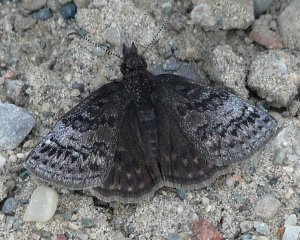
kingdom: Animalia
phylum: Arthropoda
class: Insecta
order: Lepidoptera
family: Hesperiidae
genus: Erynnis
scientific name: Erynnis icelus
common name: Dreamy Duskywing
